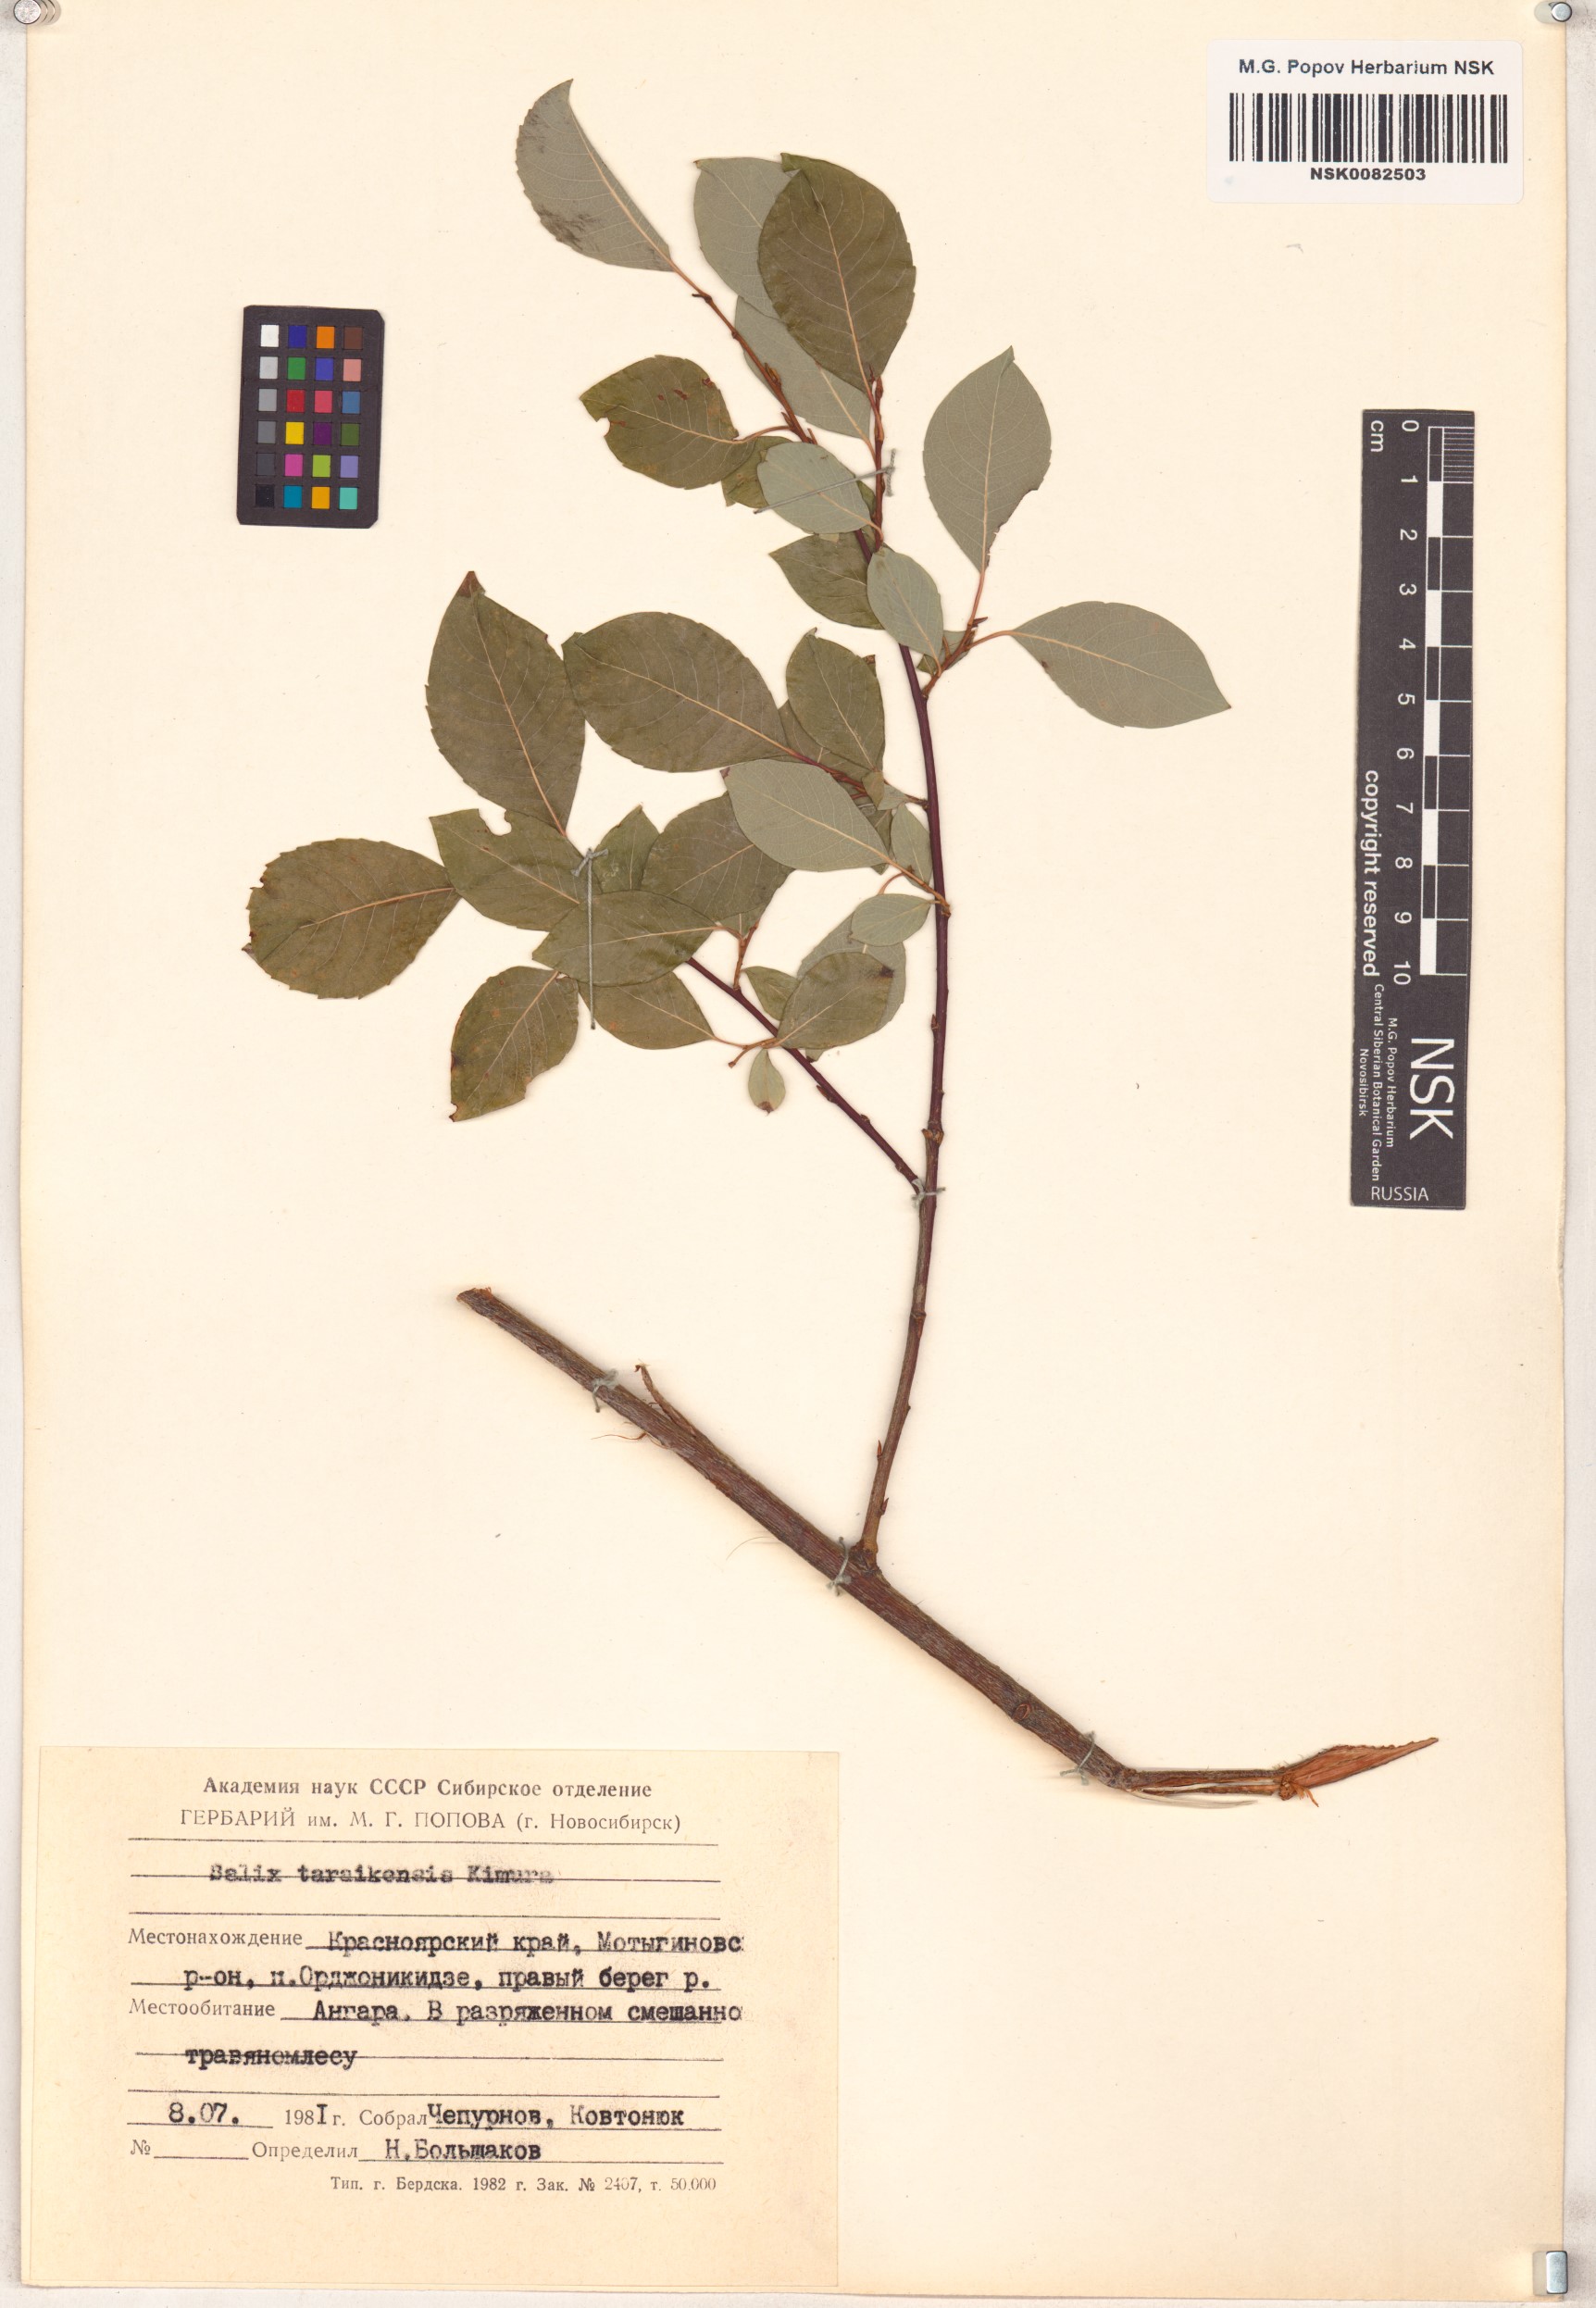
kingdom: Plantae
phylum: Tracheophyta
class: Magnoliopsida
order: Malpighiales
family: Salicaceae
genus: Salix
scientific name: Salix taraikensis
